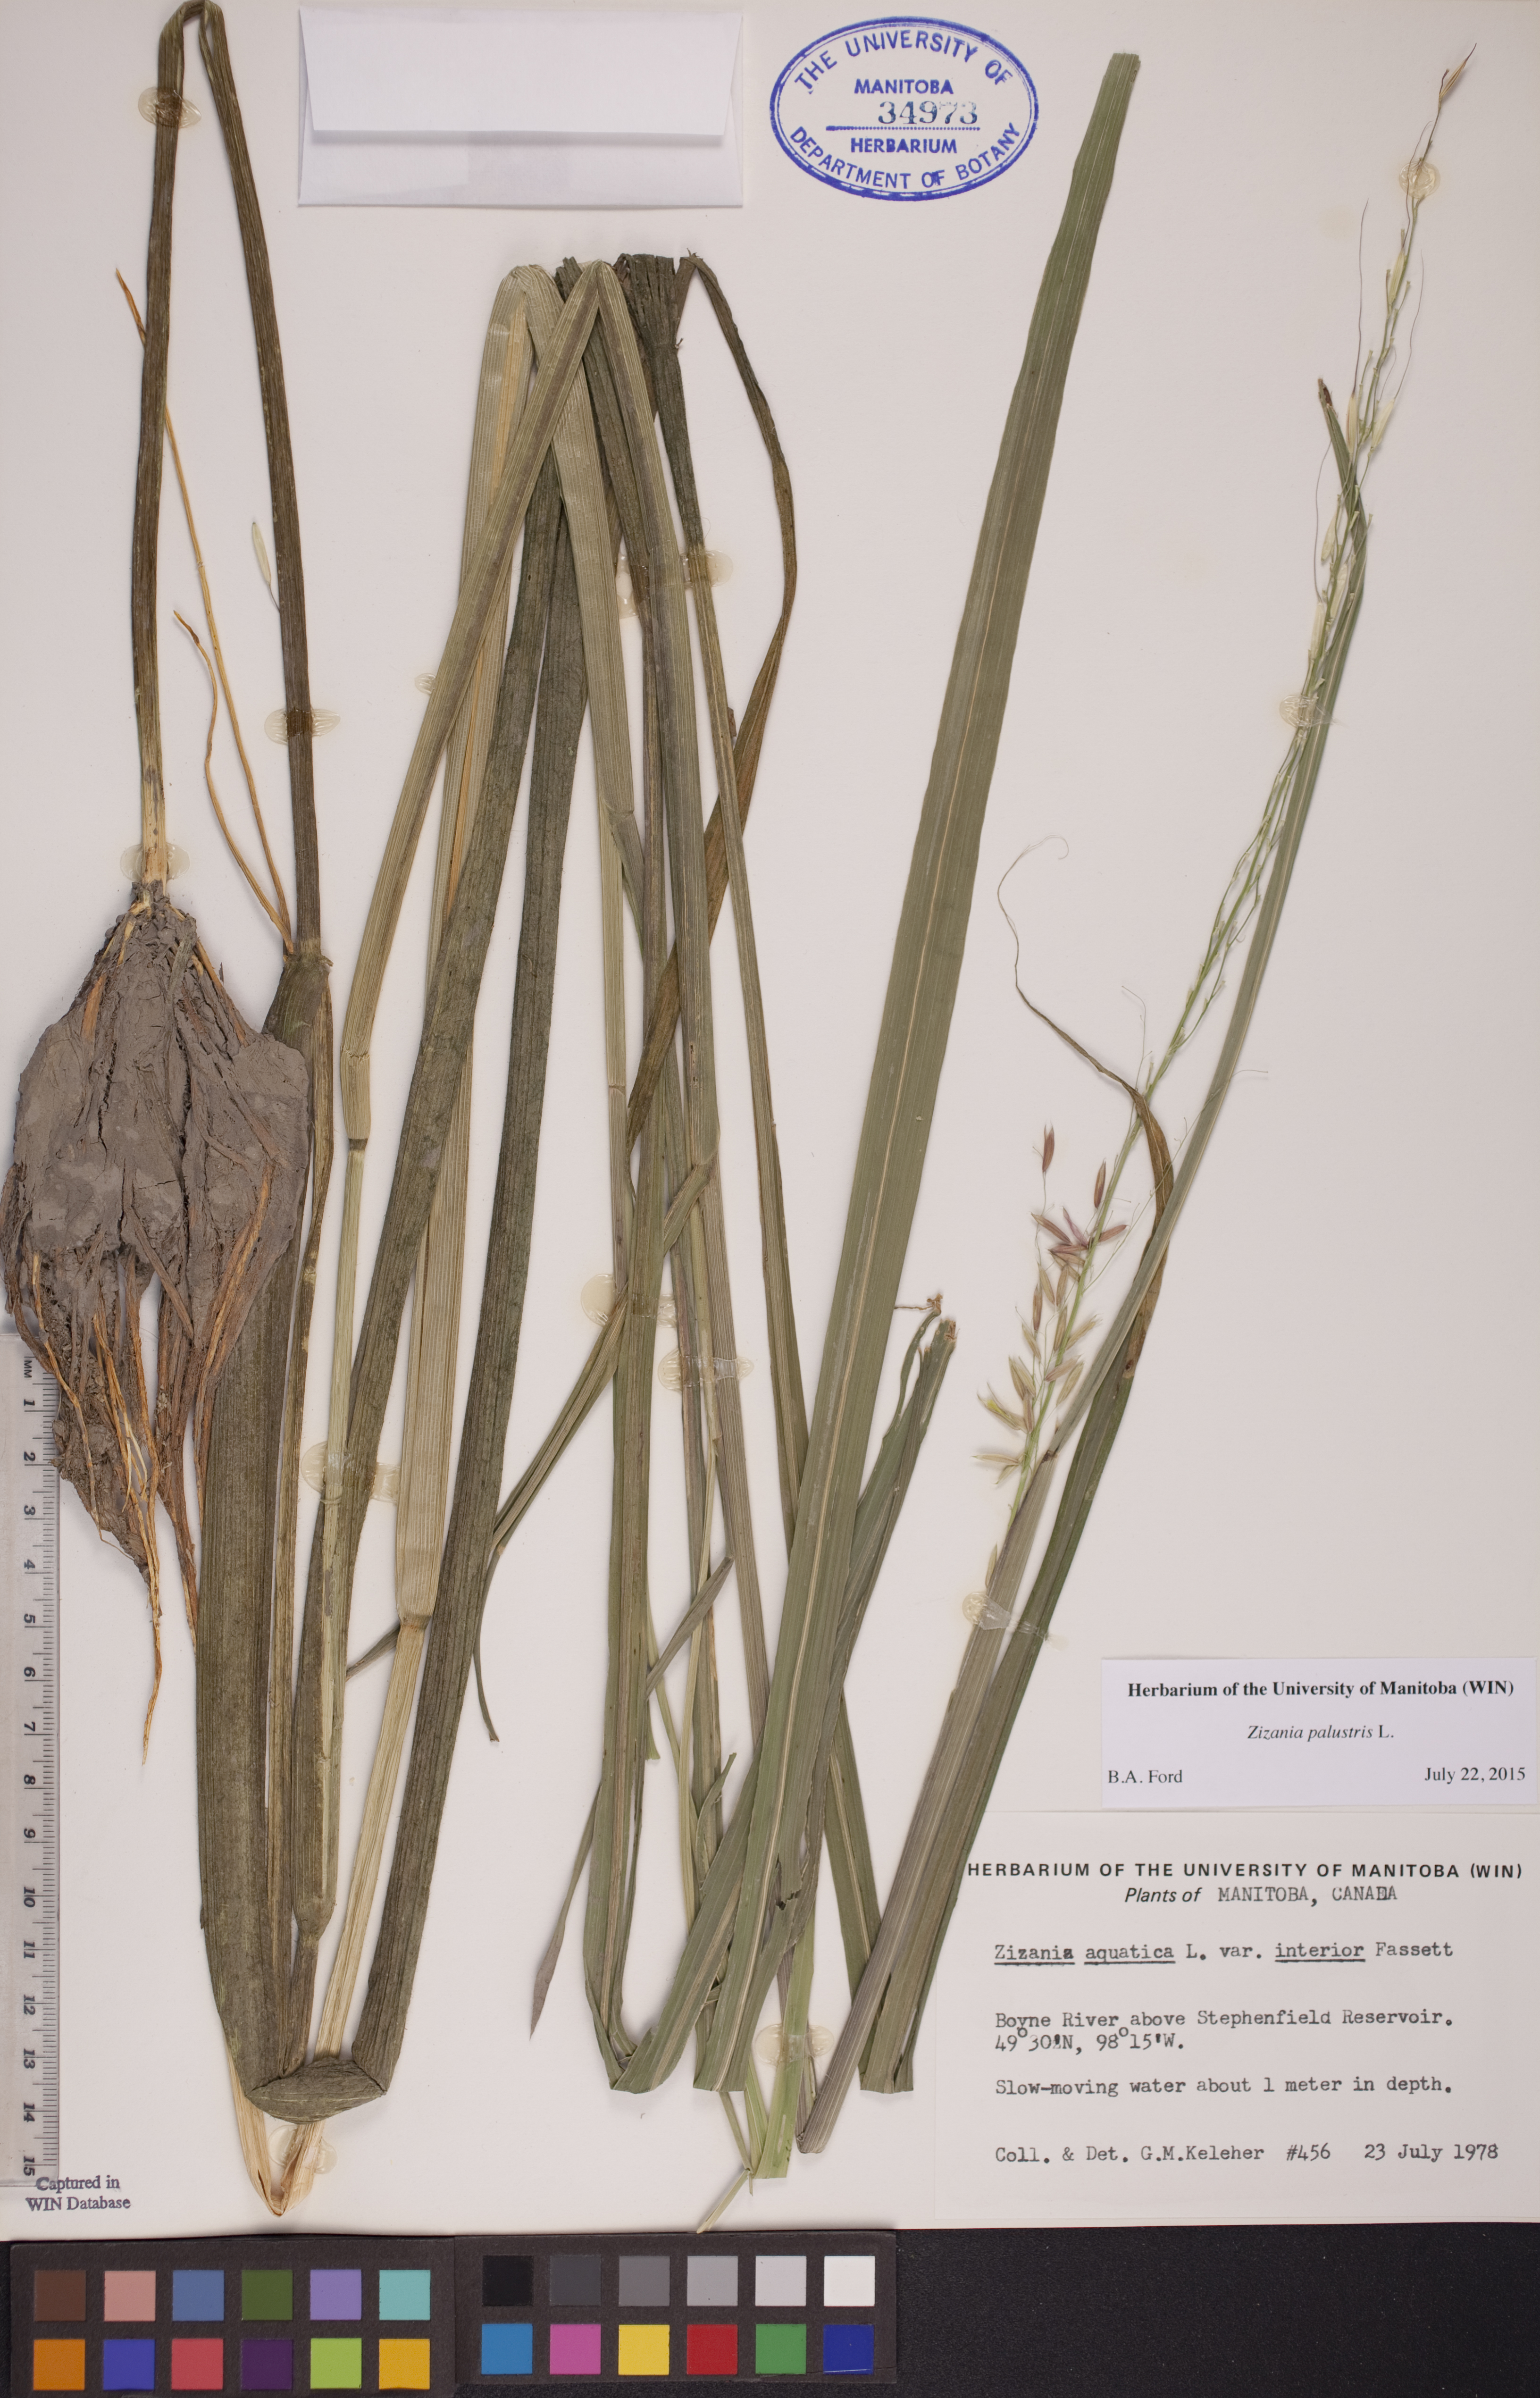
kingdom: Plantae
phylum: Tracheophyta
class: Liliopsida
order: Poales
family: Poaceae
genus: Zizania
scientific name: Zizania palustris
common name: Northern wild rice
